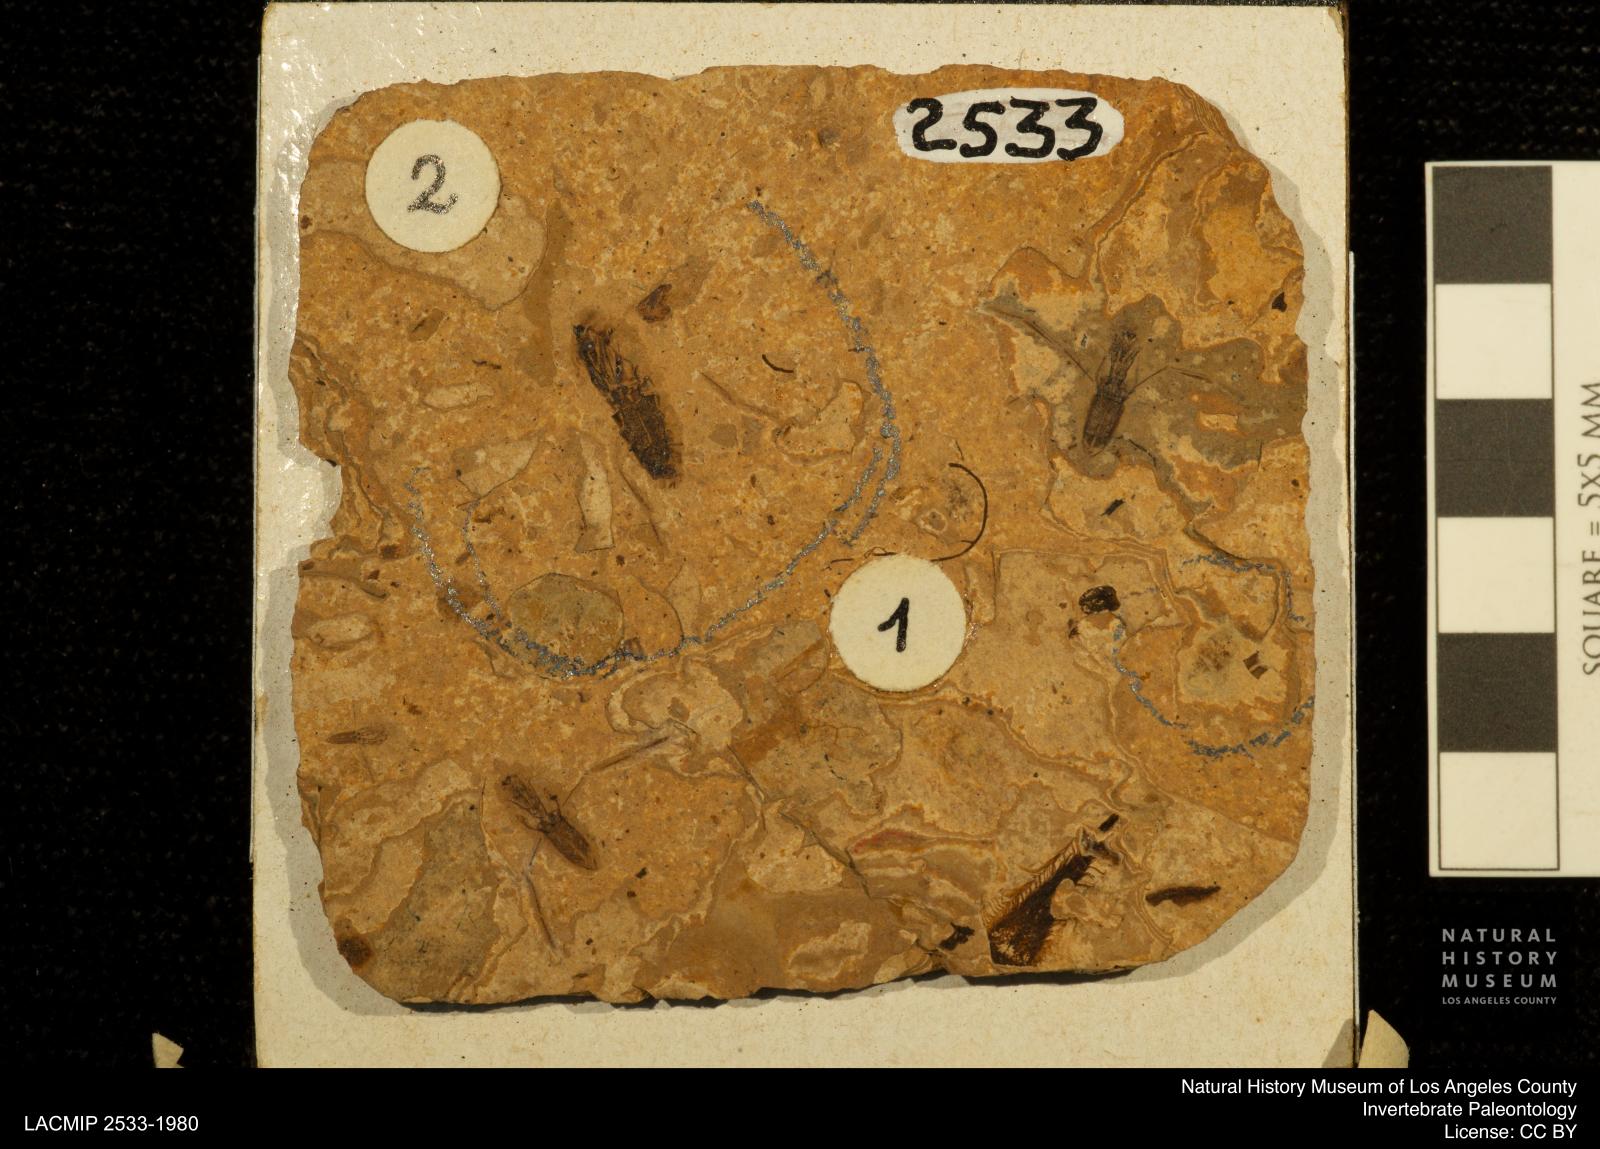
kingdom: Animalia
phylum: Arthropoda
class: Insecta
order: Hemiptera
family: Notonectidae
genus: Anisops
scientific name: Anisops Notonecta deichmuelleri
